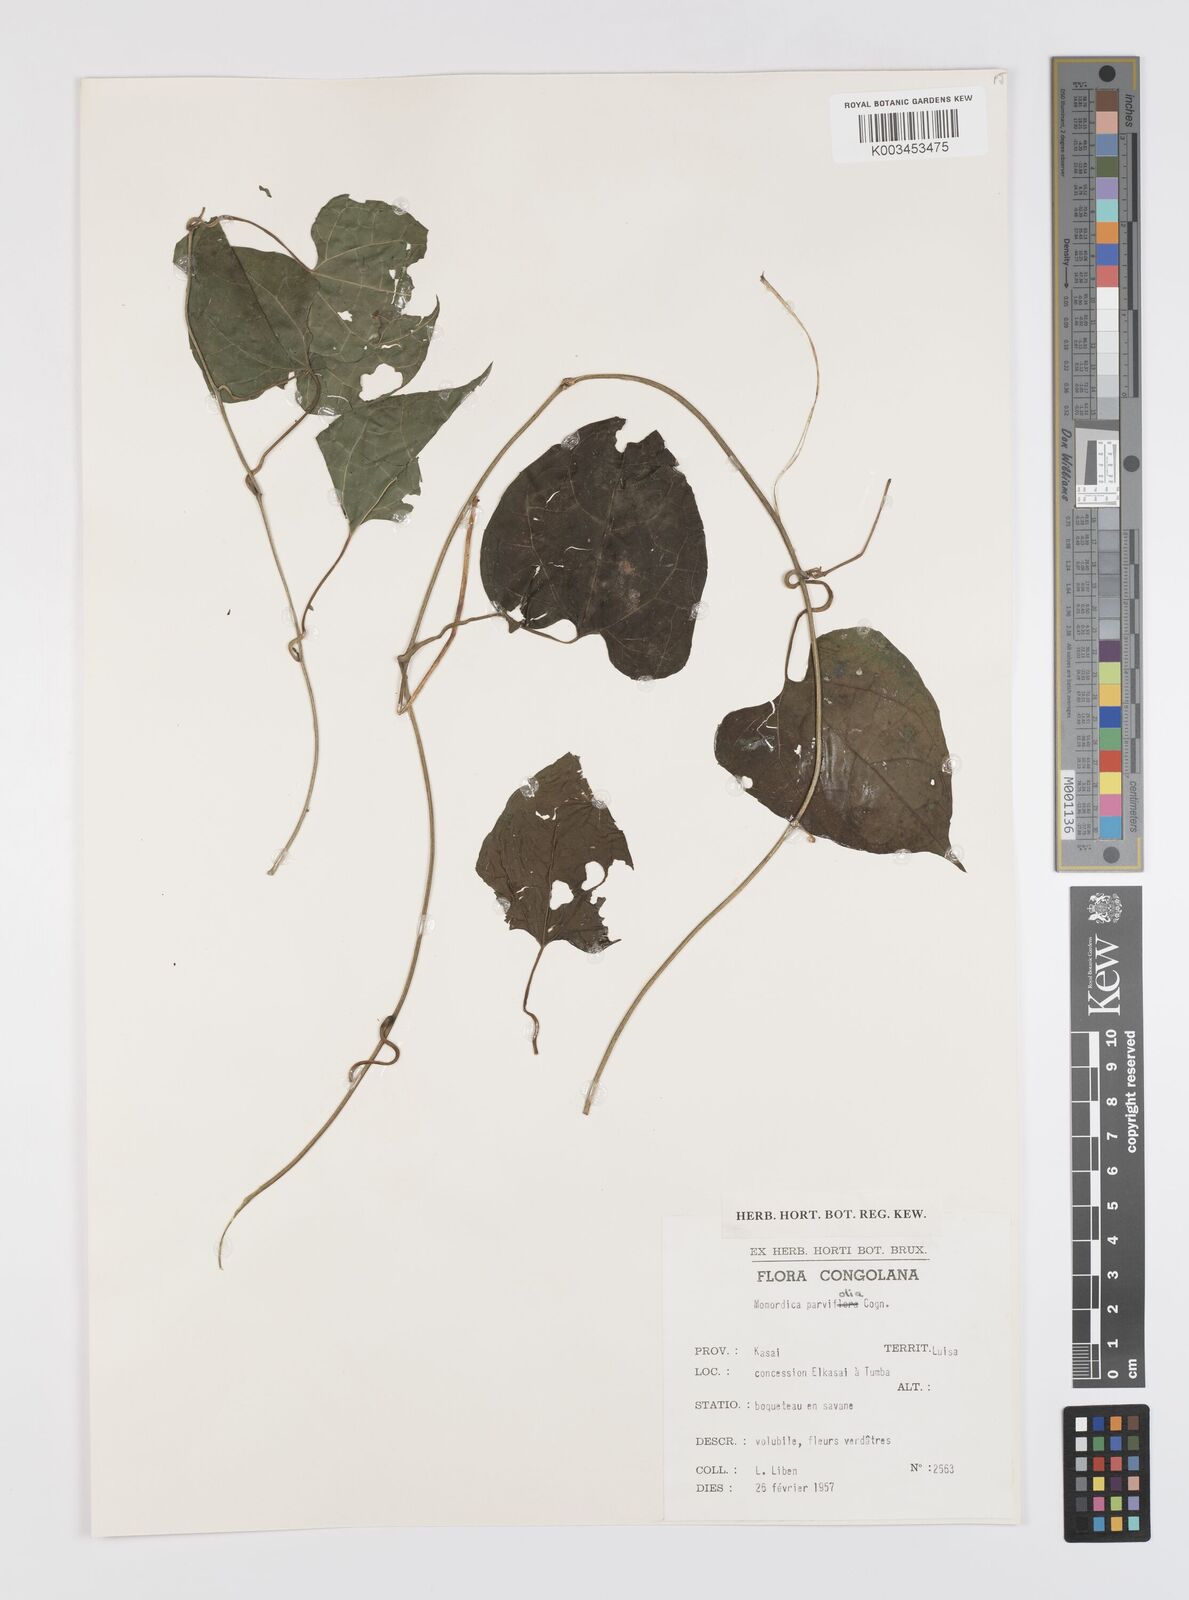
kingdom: Plantae
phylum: Tracheophyta
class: Magnoliopsida
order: Cucurbitales
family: Cucurbitaceae
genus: Momordica
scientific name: Momordica parvifolia
